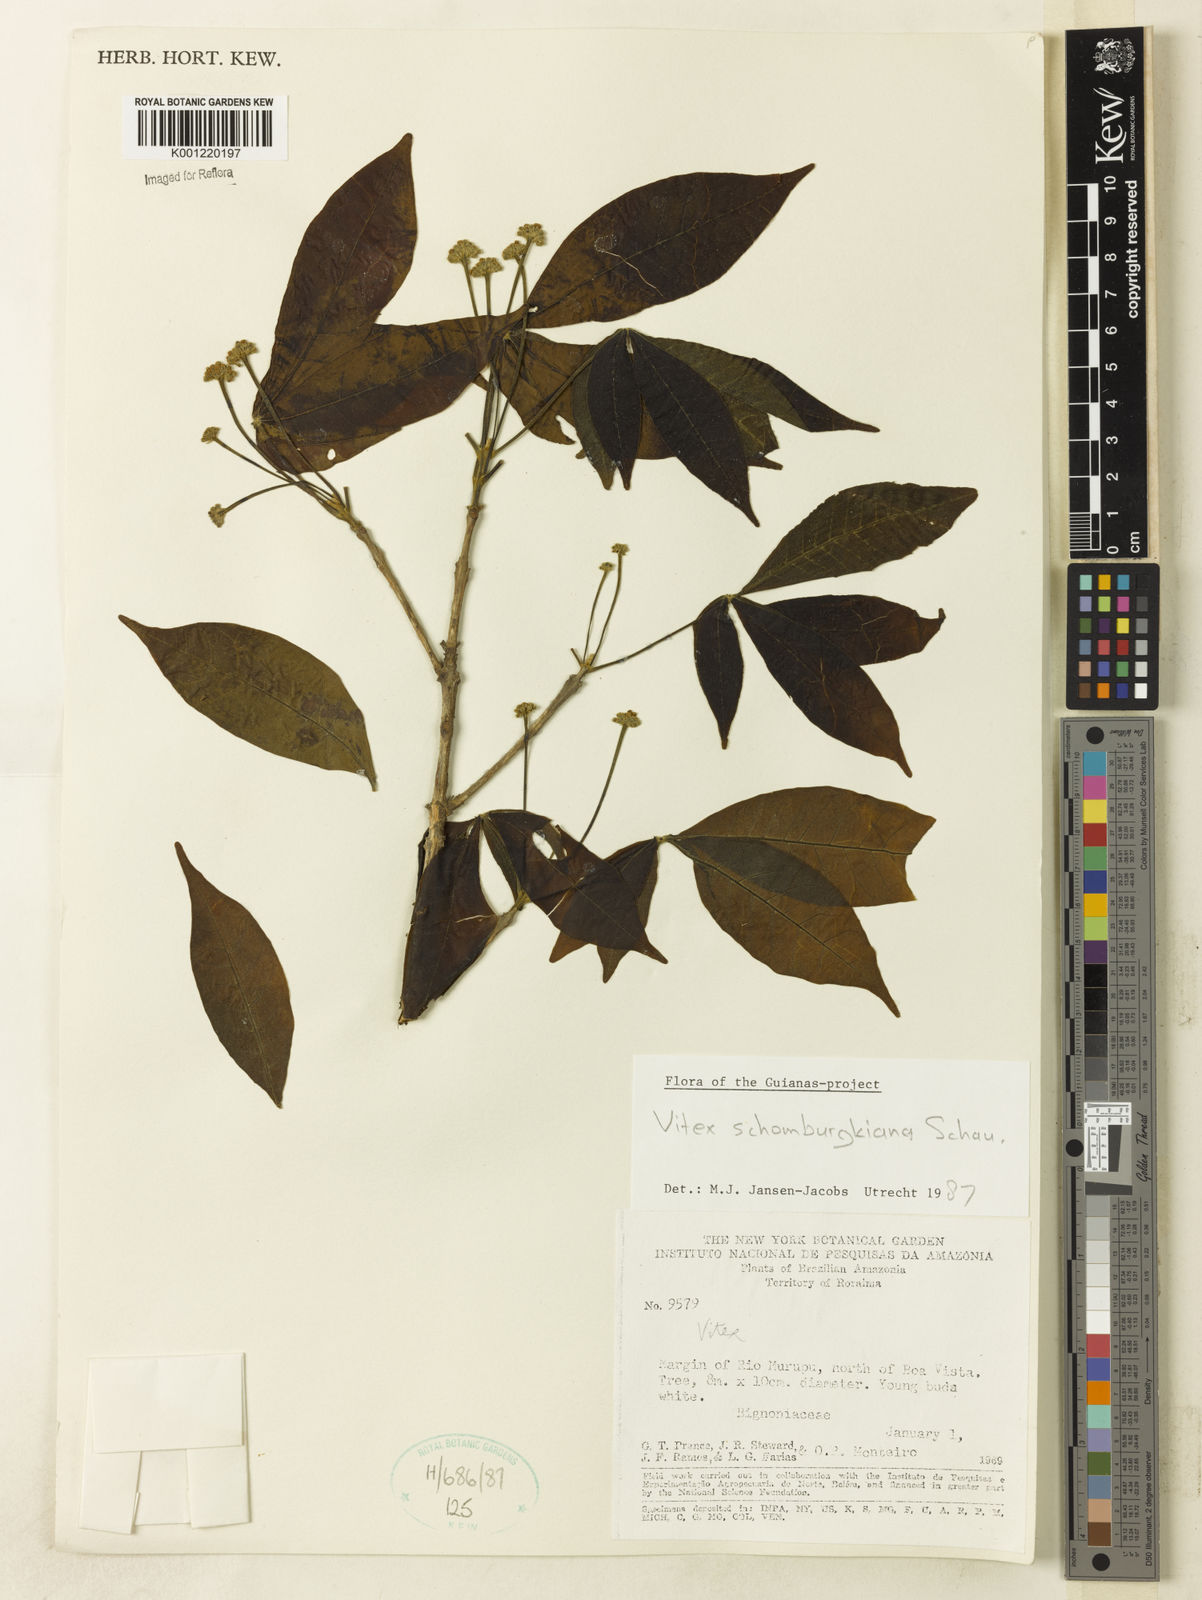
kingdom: Plantae
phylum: Tracheophyta
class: Magnoliopsida
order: Lamiales
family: Lamiaceae
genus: Vitex
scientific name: Vitex schomburgkiana
